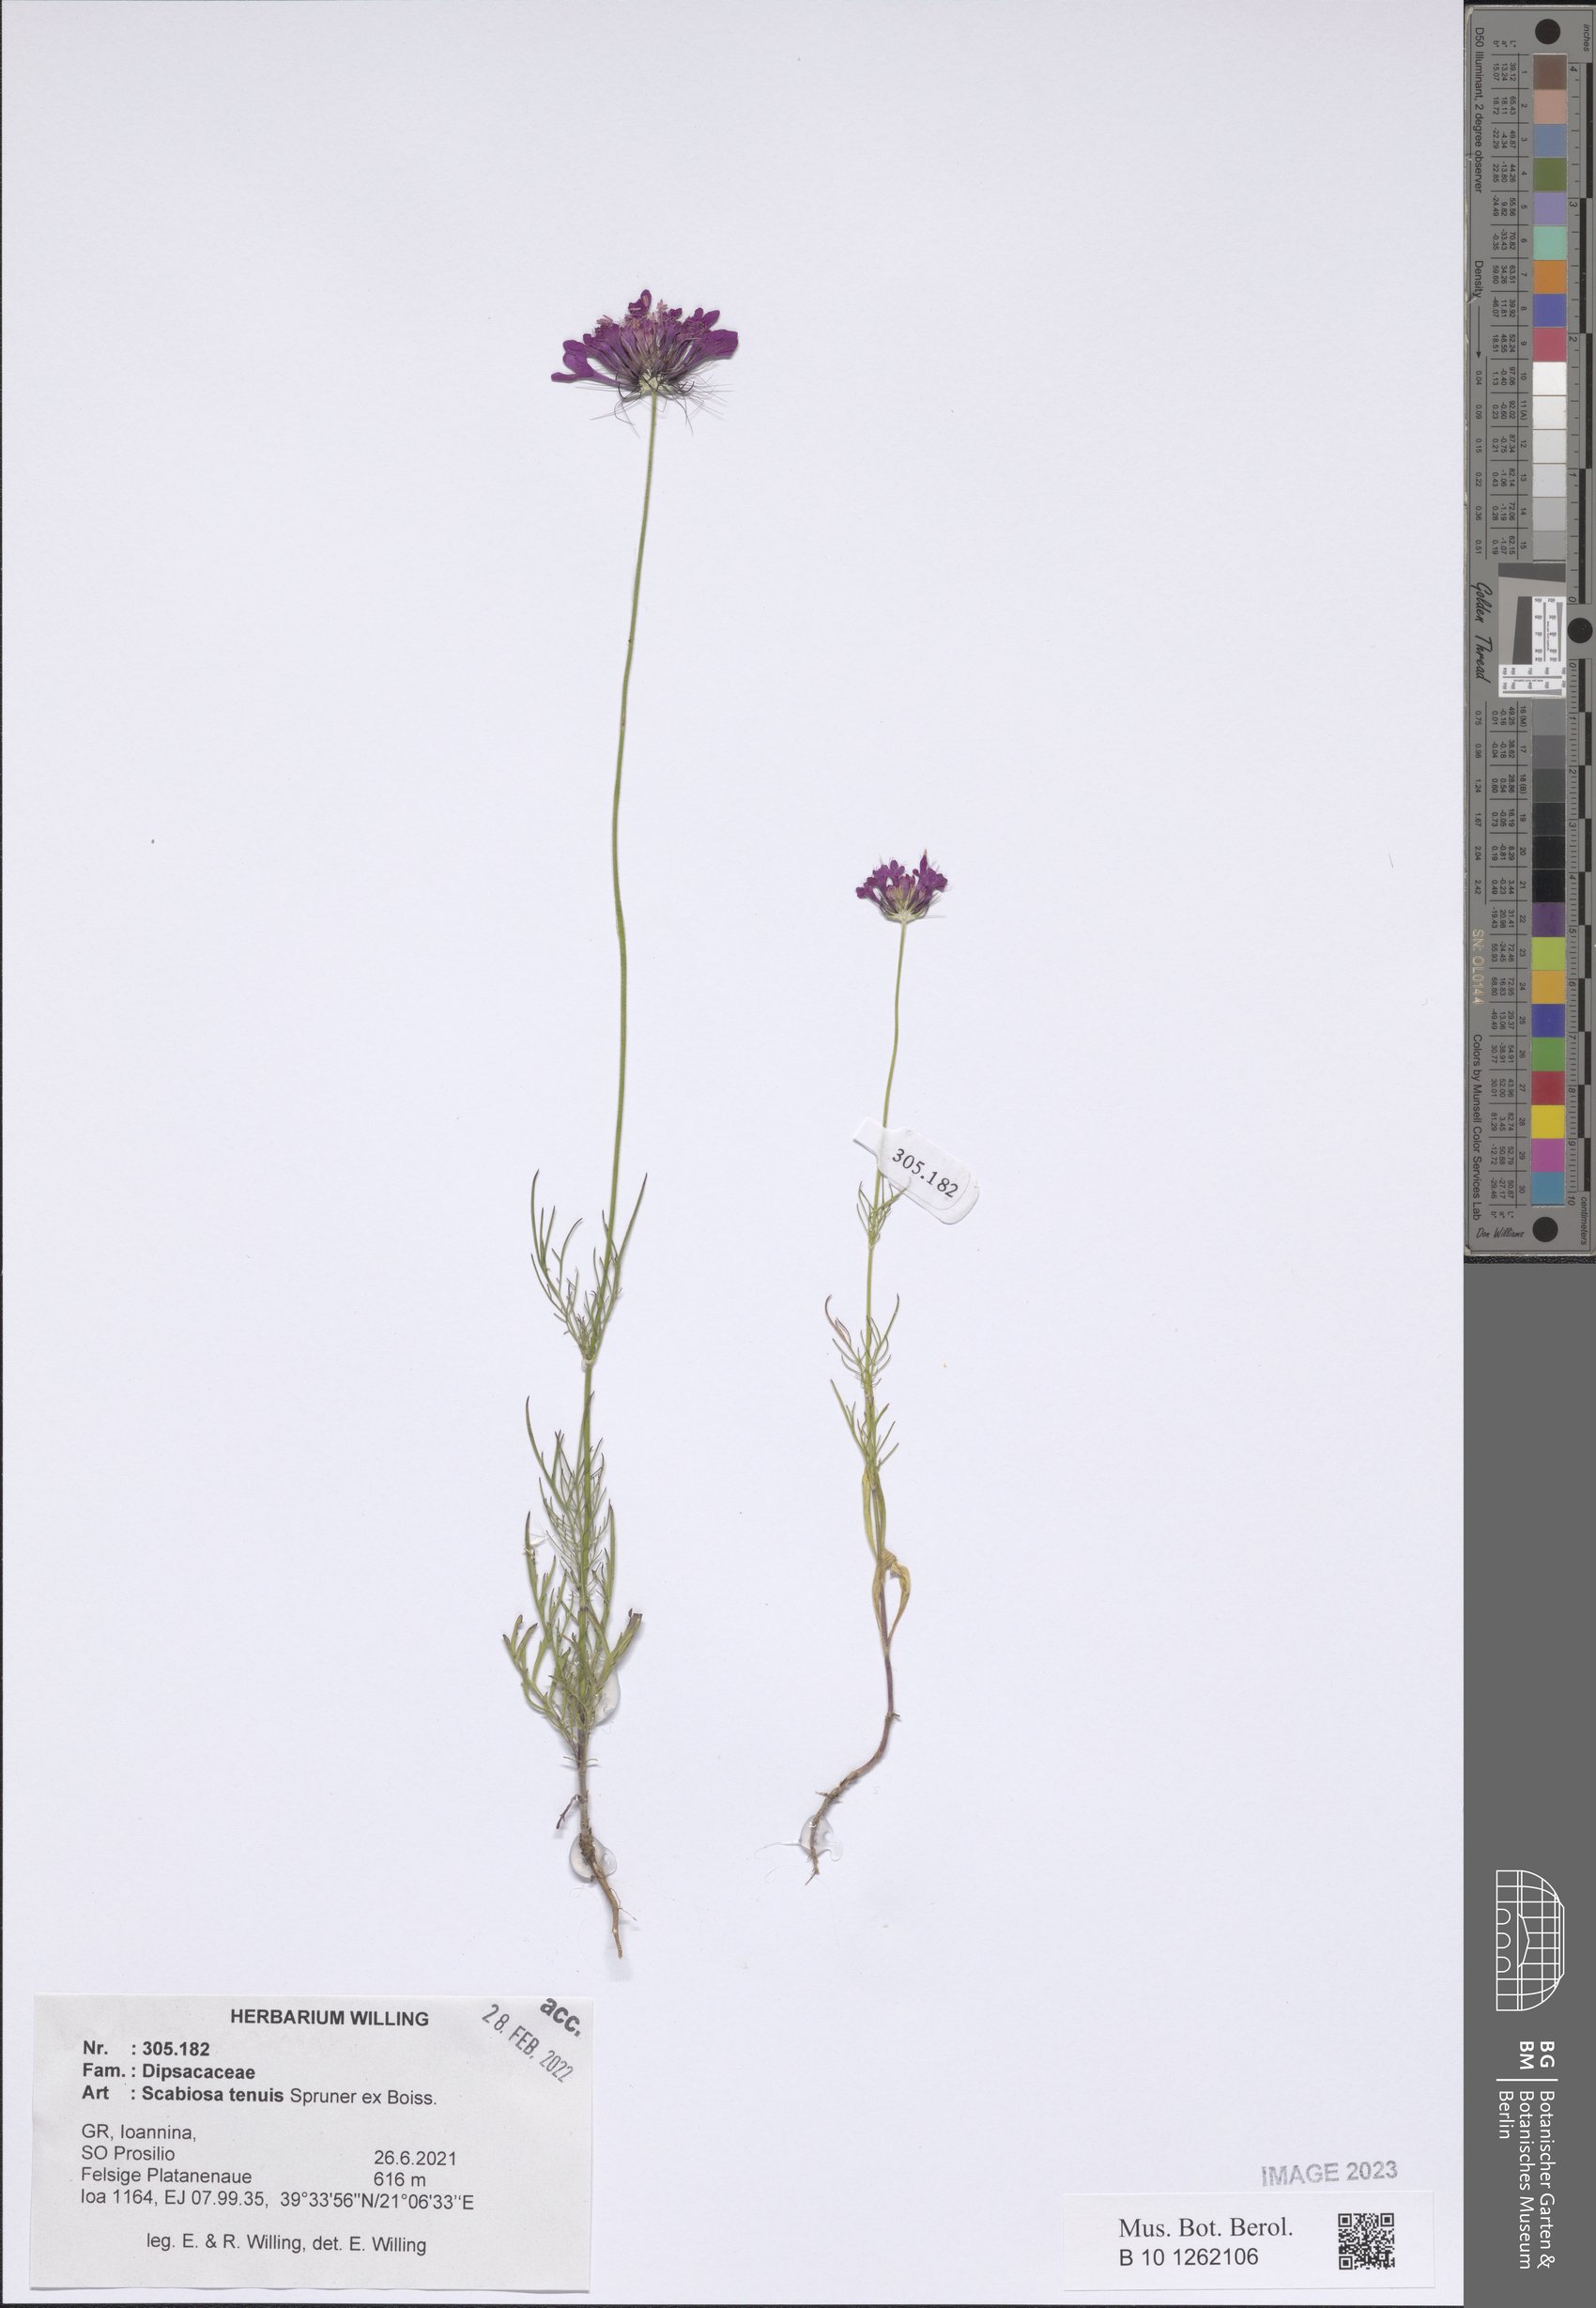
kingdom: Plantae
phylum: Tracheophyta
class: Magnoliopsida
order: Dipsacales
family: Caprifoliaceae
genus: Scabiosa
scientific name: Scabiosa tenuis
